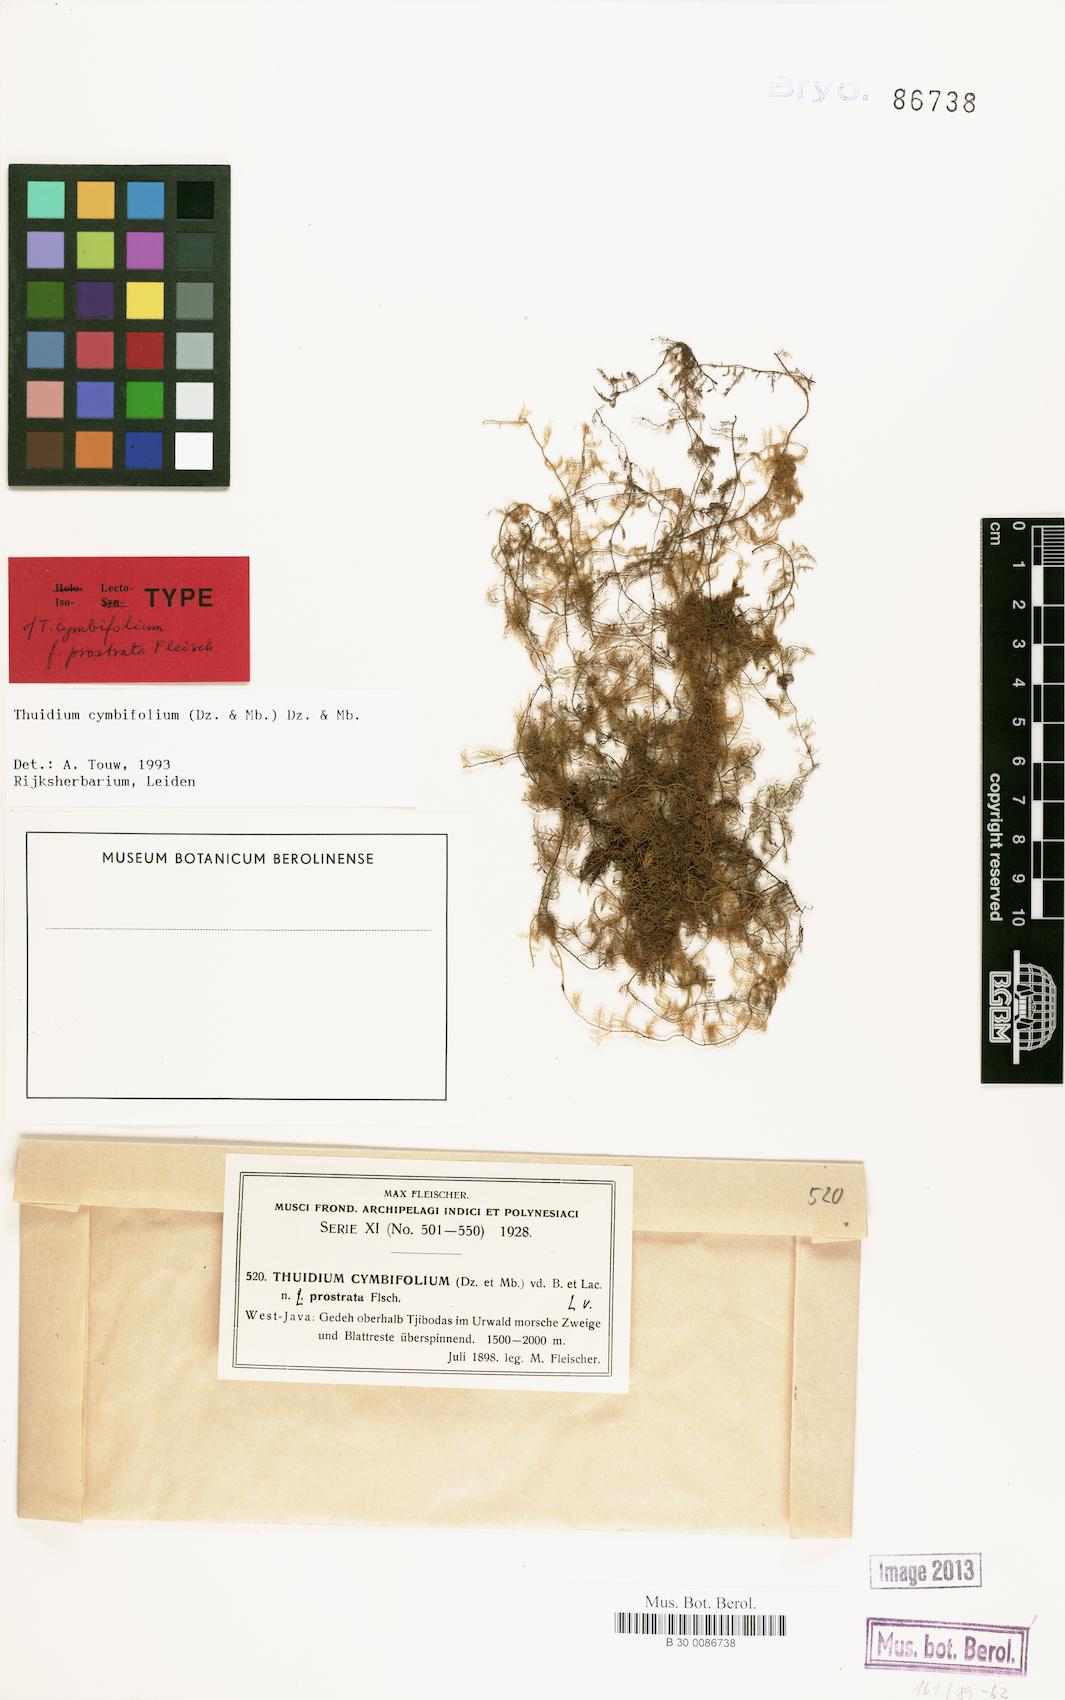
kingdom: Plantae
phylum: Bryophyta
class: Bryopsida
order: Hypnales
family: Thuidiaceae
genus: Thuidium
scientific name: Thuidium cymbifolium
